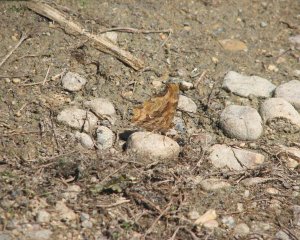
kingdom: Animalia
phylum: Arthropoda
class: Insecta
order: Lepidoptera
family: Nymphalidae
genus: Polygonia
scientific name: Polygonia satyrus
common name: Satyr Comma
